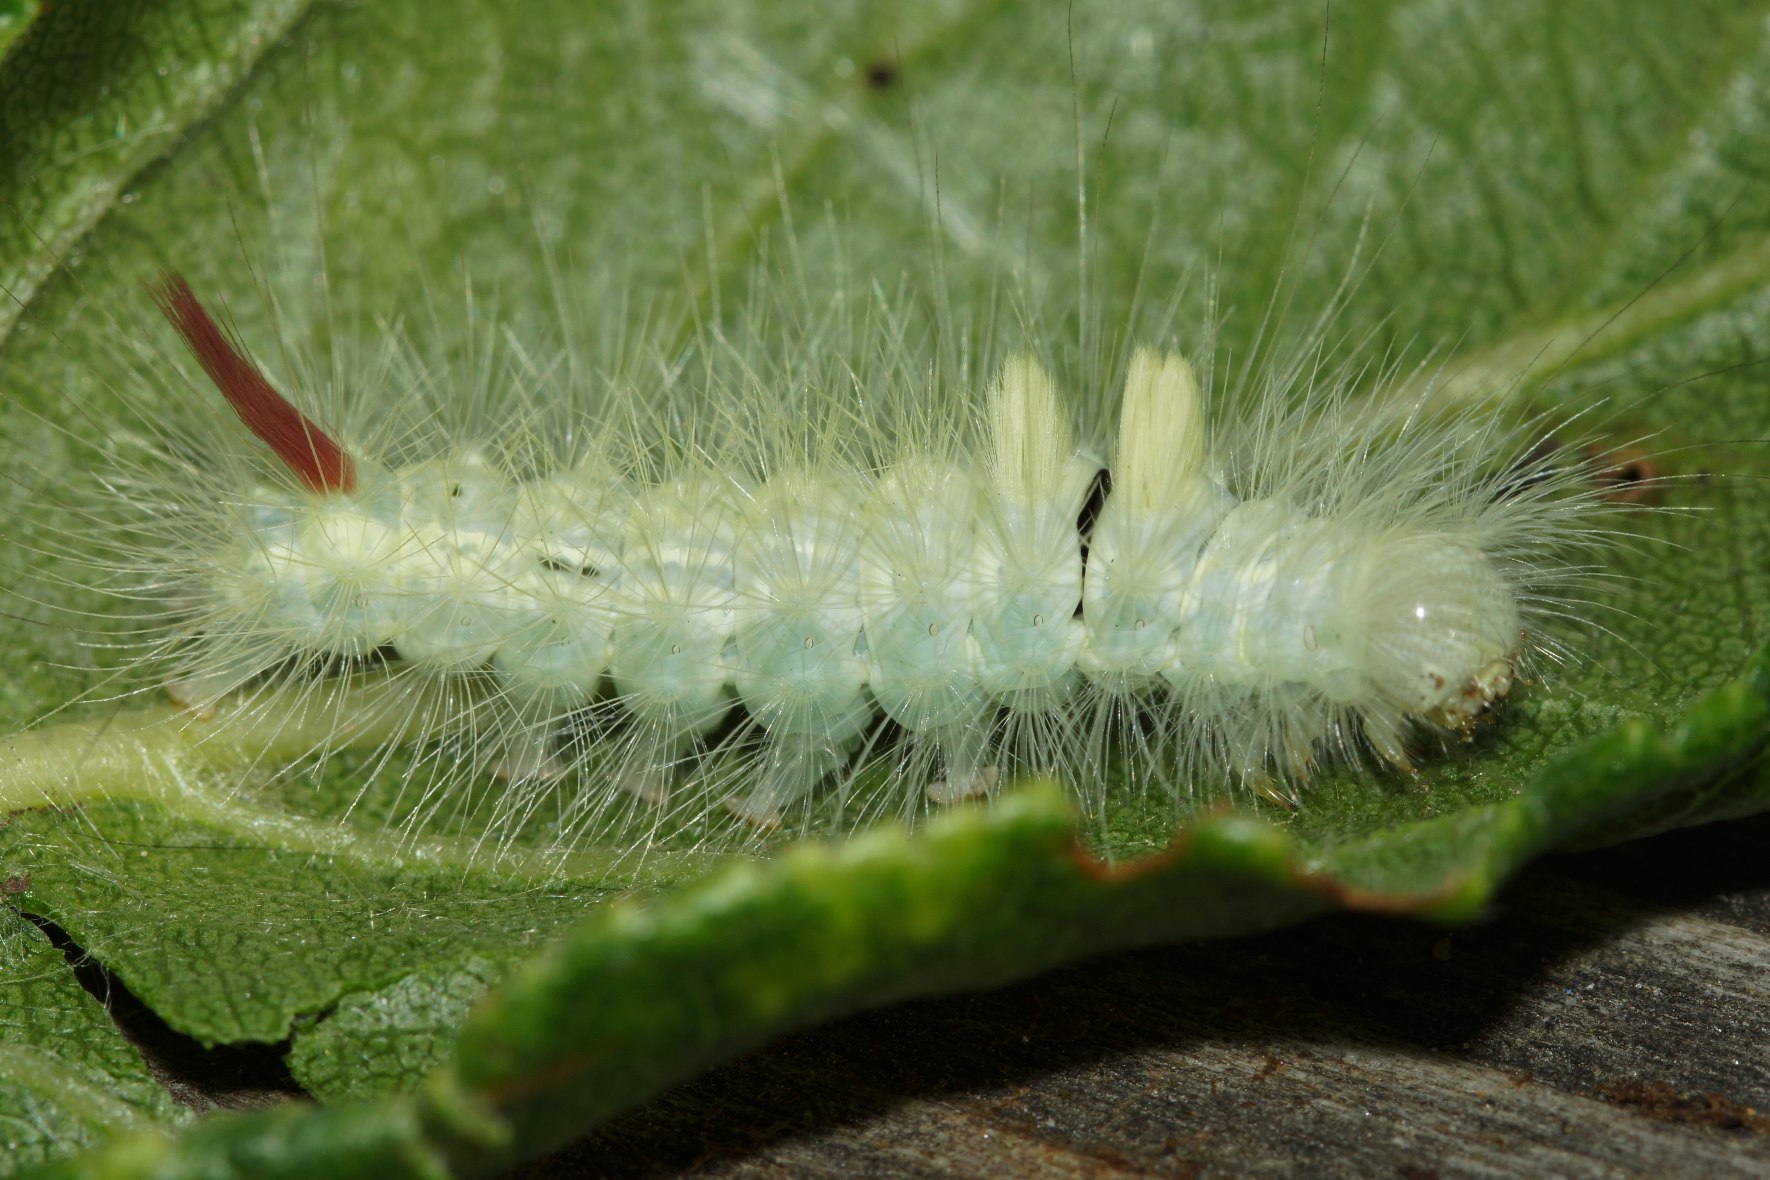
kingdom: Animalia
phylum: Arthropoda
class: Insecta
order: Lepidoptera
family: Erebidae
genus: Calliteara
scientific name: Calliteara pudibunda
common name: Bøgenonne
